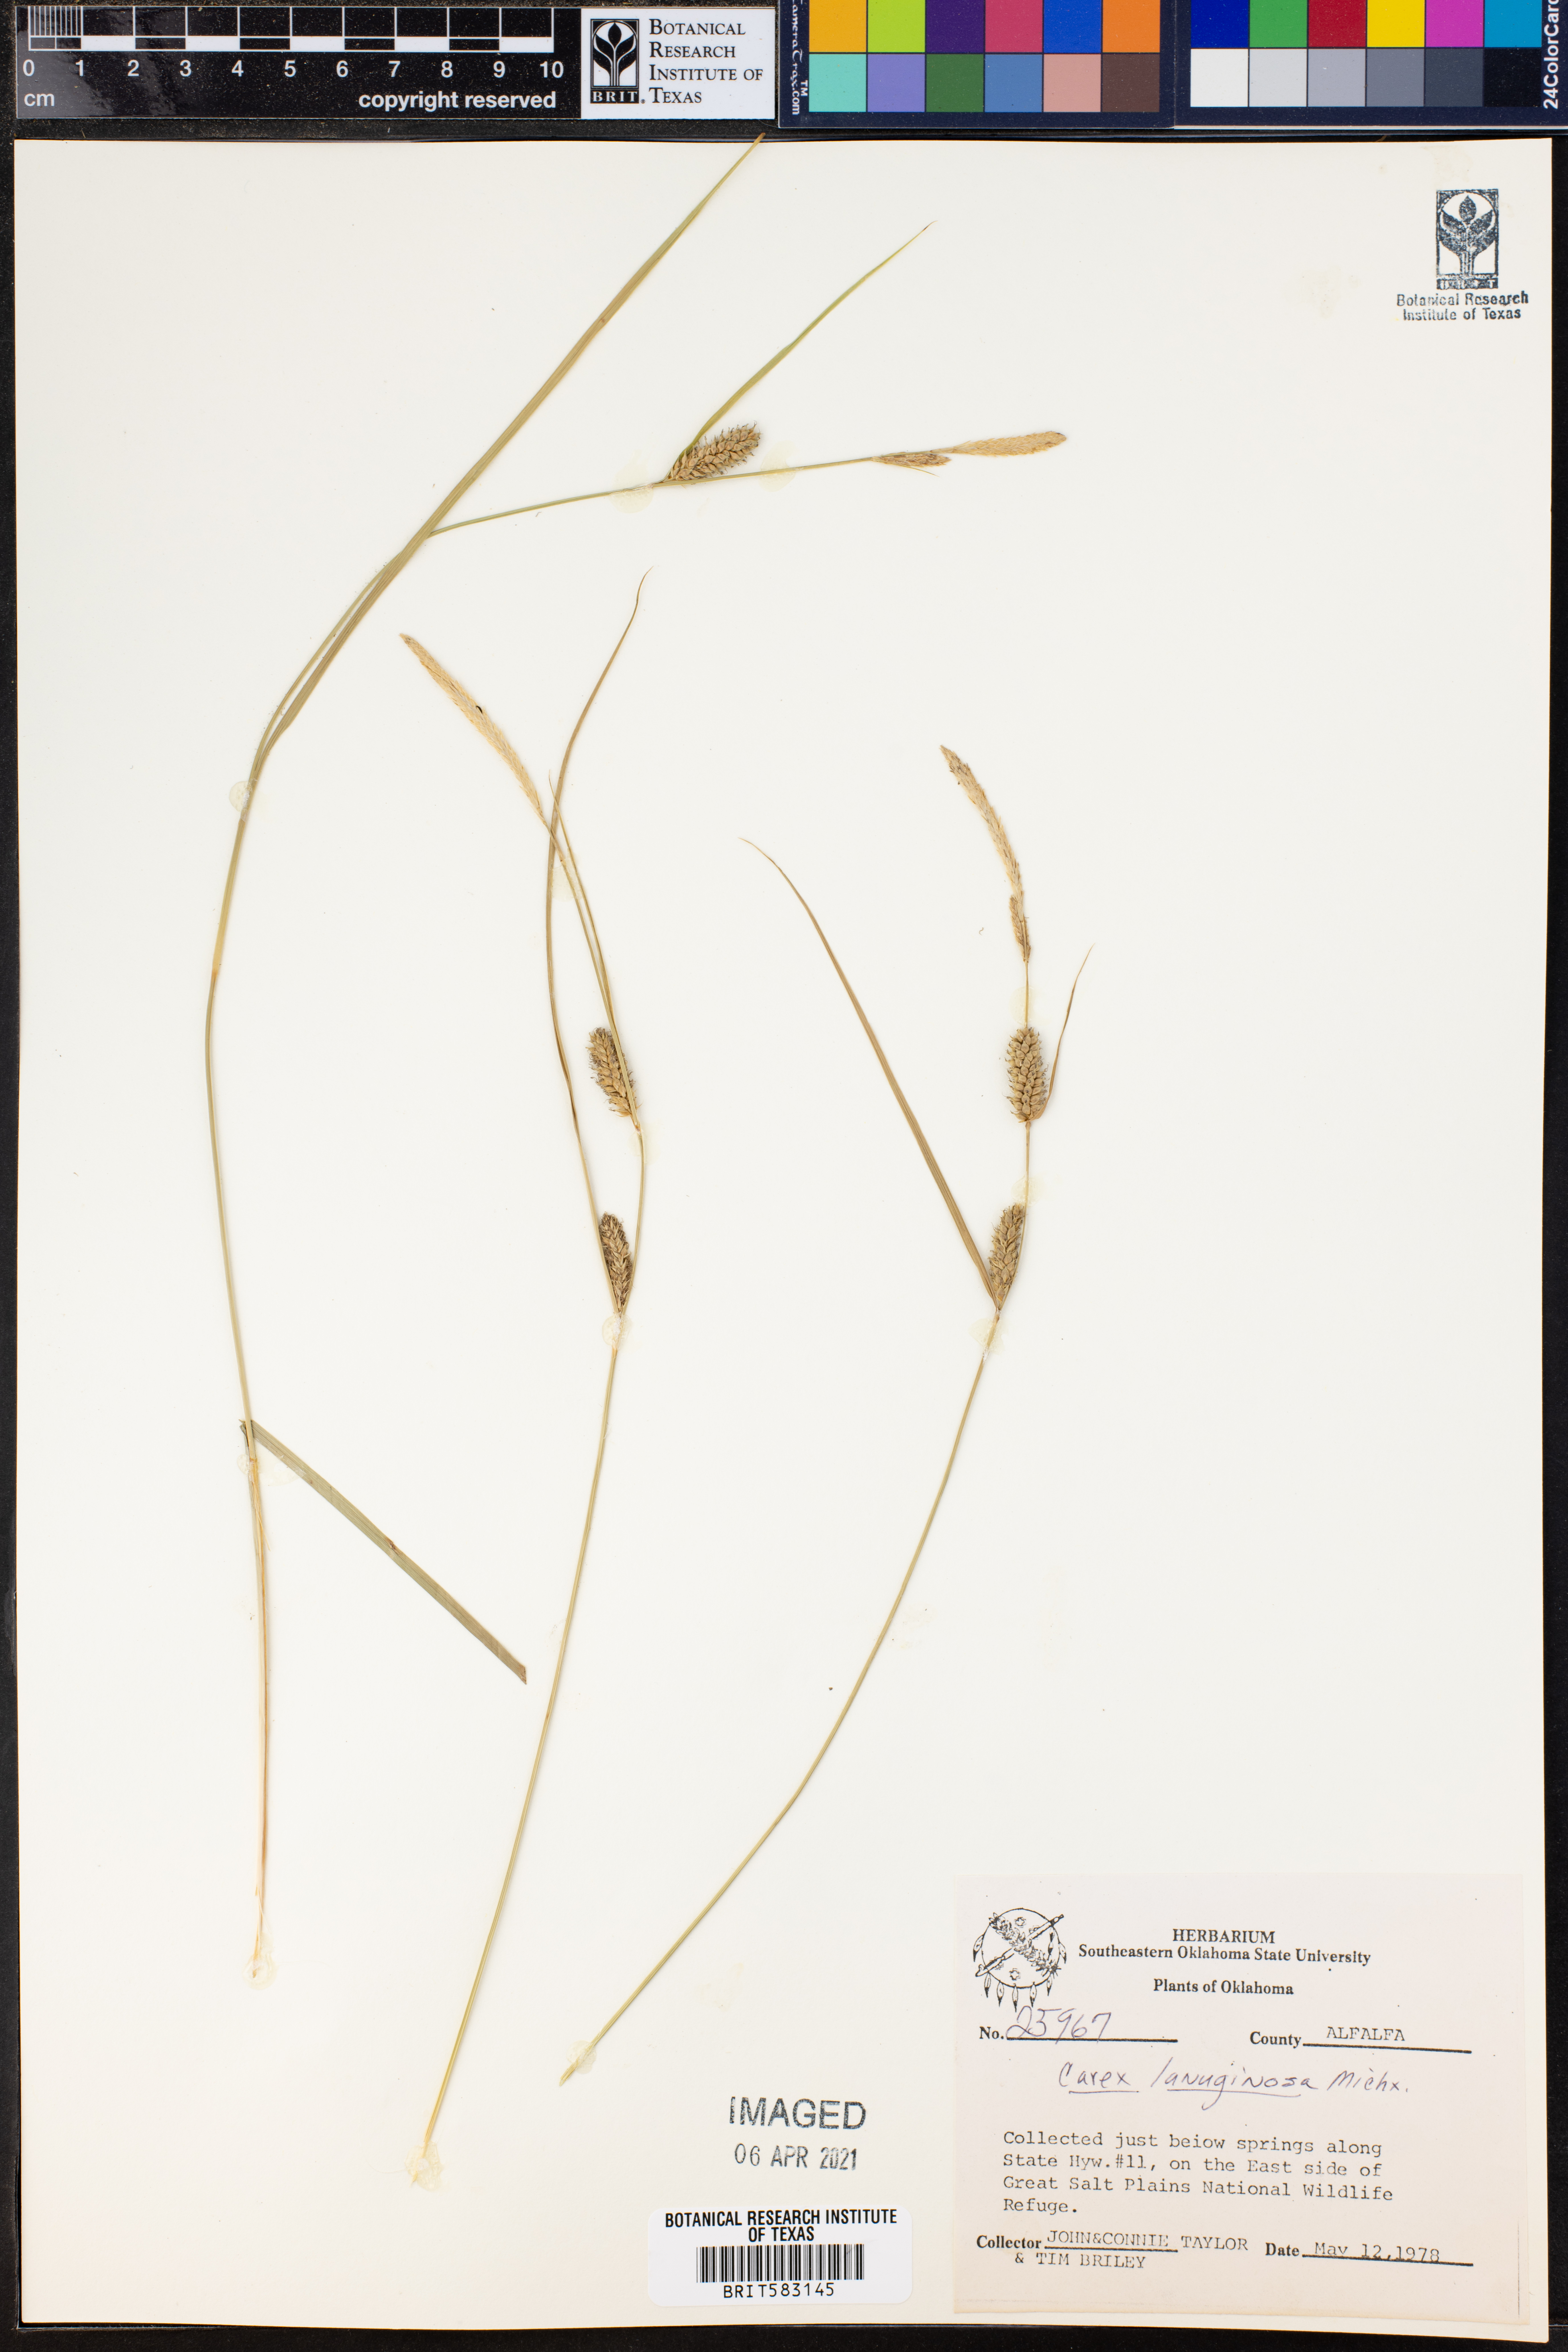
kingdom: Plantae
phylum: Tracheophyta
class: Liliopsida
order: Poales
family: Cyperaceae
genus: Carex
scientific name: Carex lasiocarpa
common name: Slender sedge
